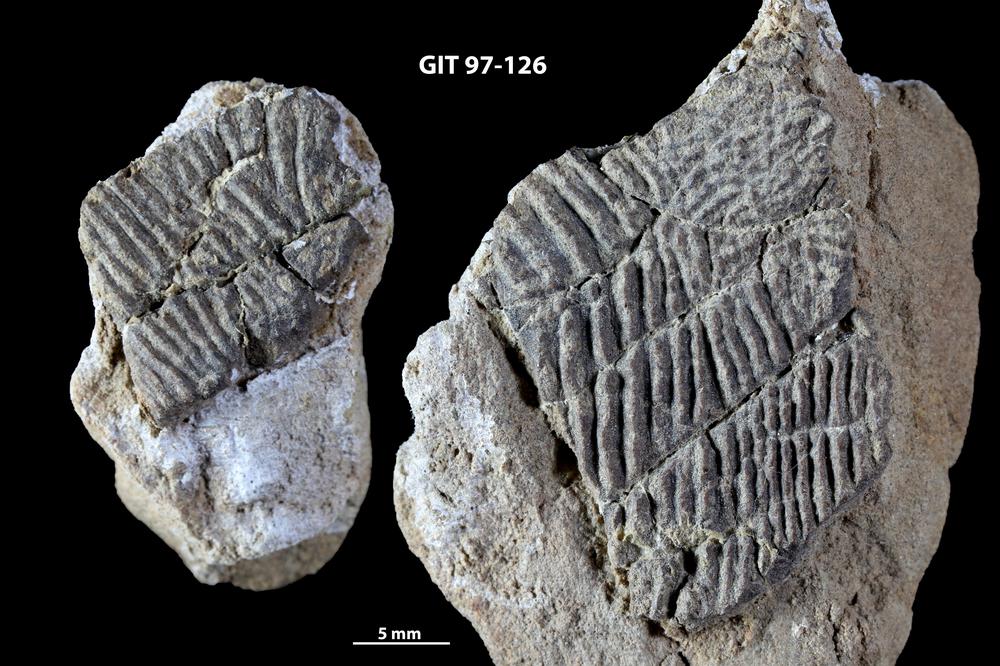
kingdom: Animalia
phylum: Chordata
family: Holonematidae
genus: Holonema
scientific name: Holonema
